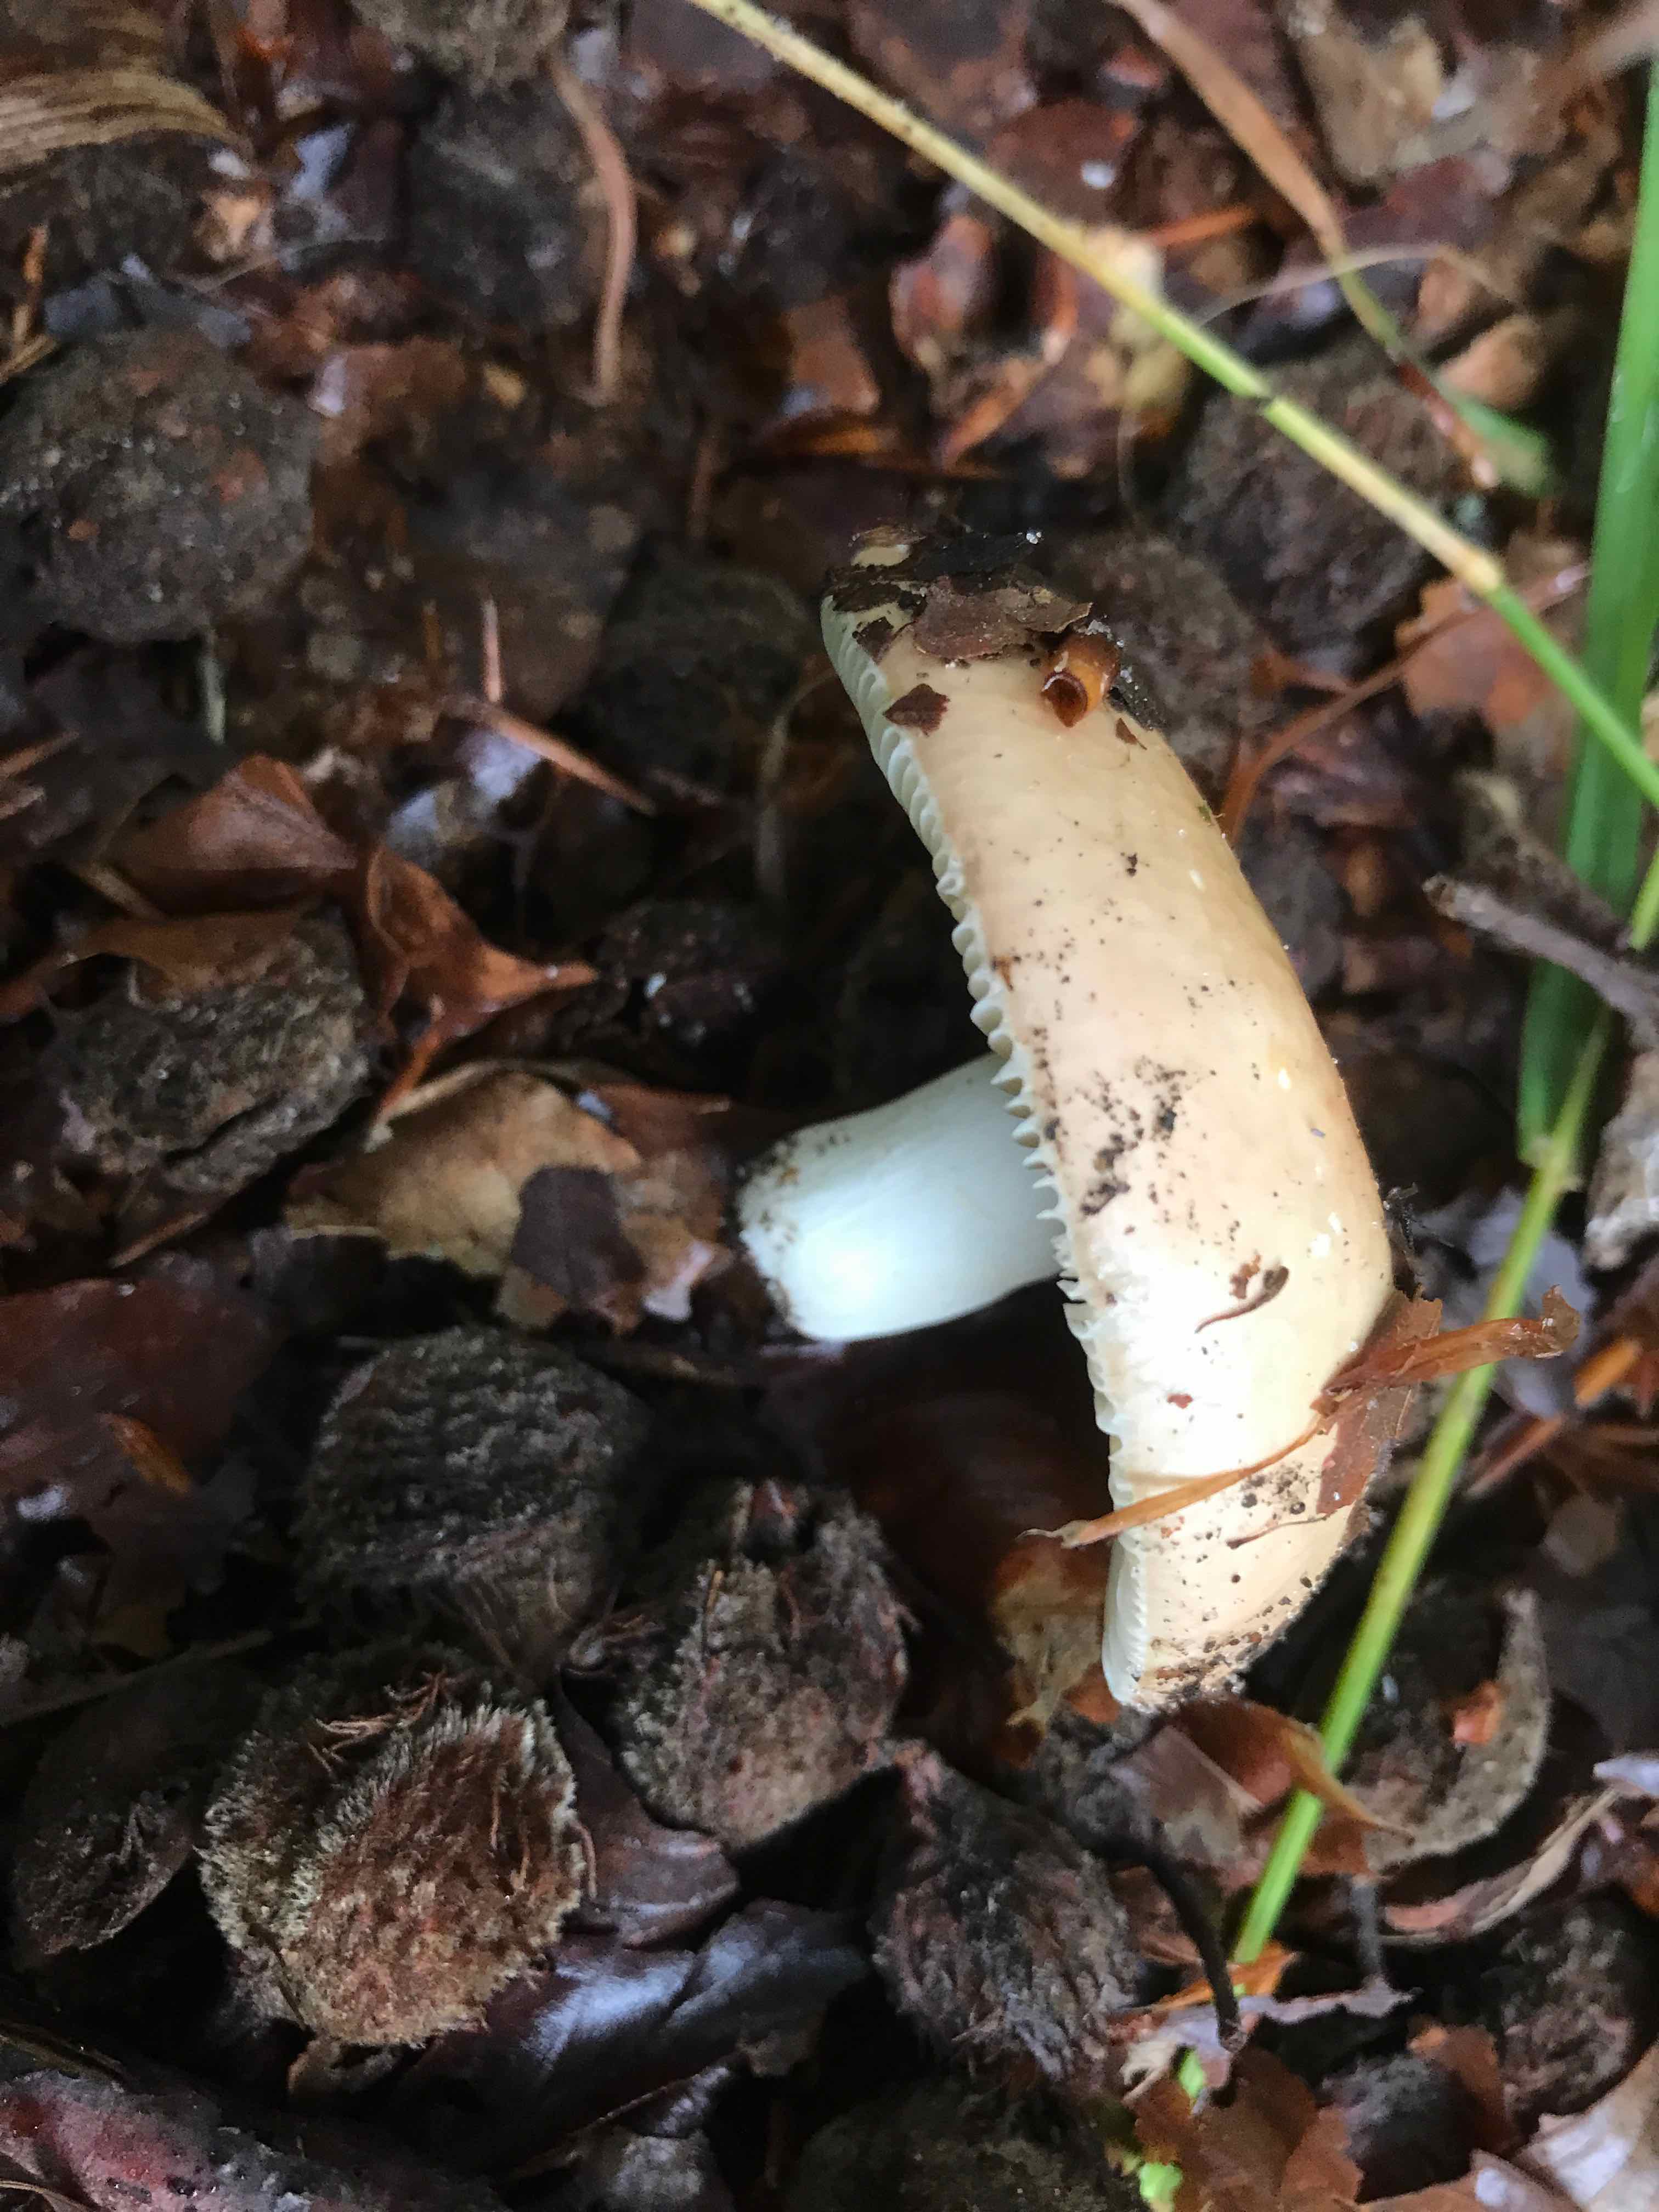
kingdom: Fungi
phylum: Basidiomycota
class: Agaricomycetes
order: Russulales
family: Russulaceae
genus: Russula
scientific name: Russula
